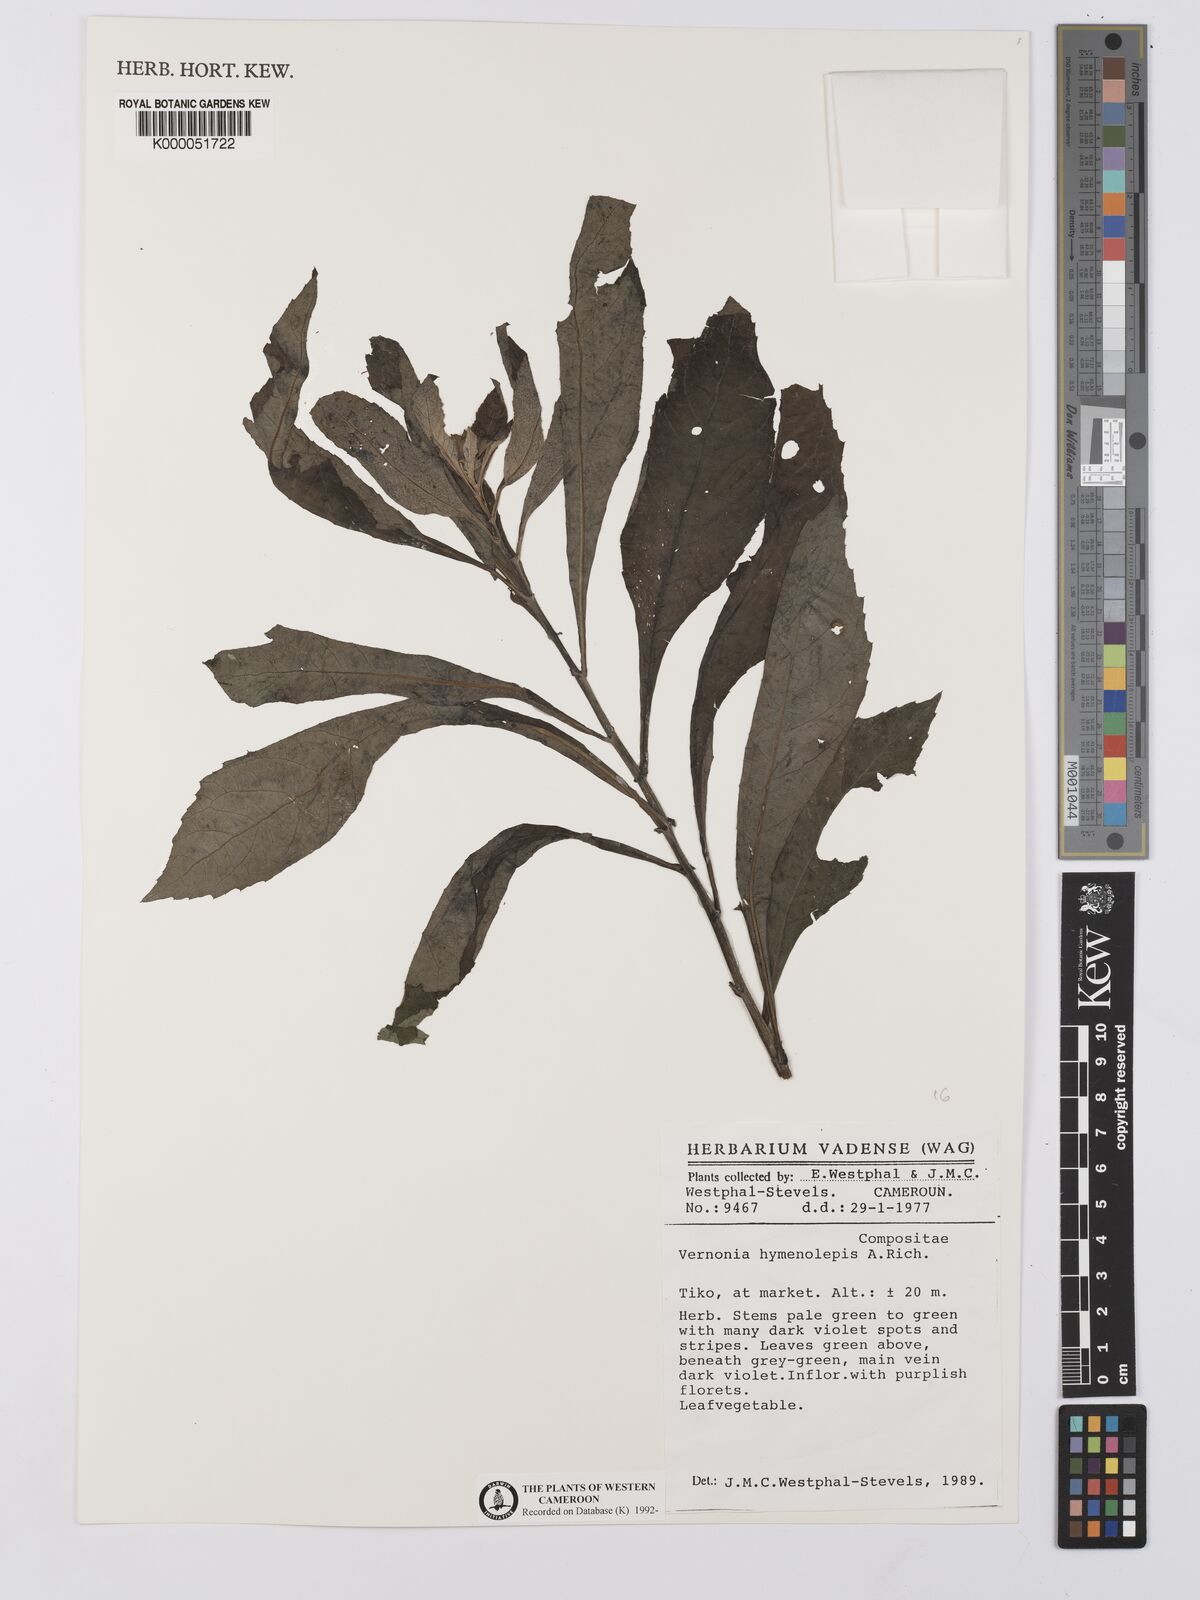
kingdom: Plantae
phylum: Tracheophyta
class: Magnoliopsida
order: Asterales
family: Asteraceae
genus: Baccharoides
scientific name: Baccharoides hymenolepis
